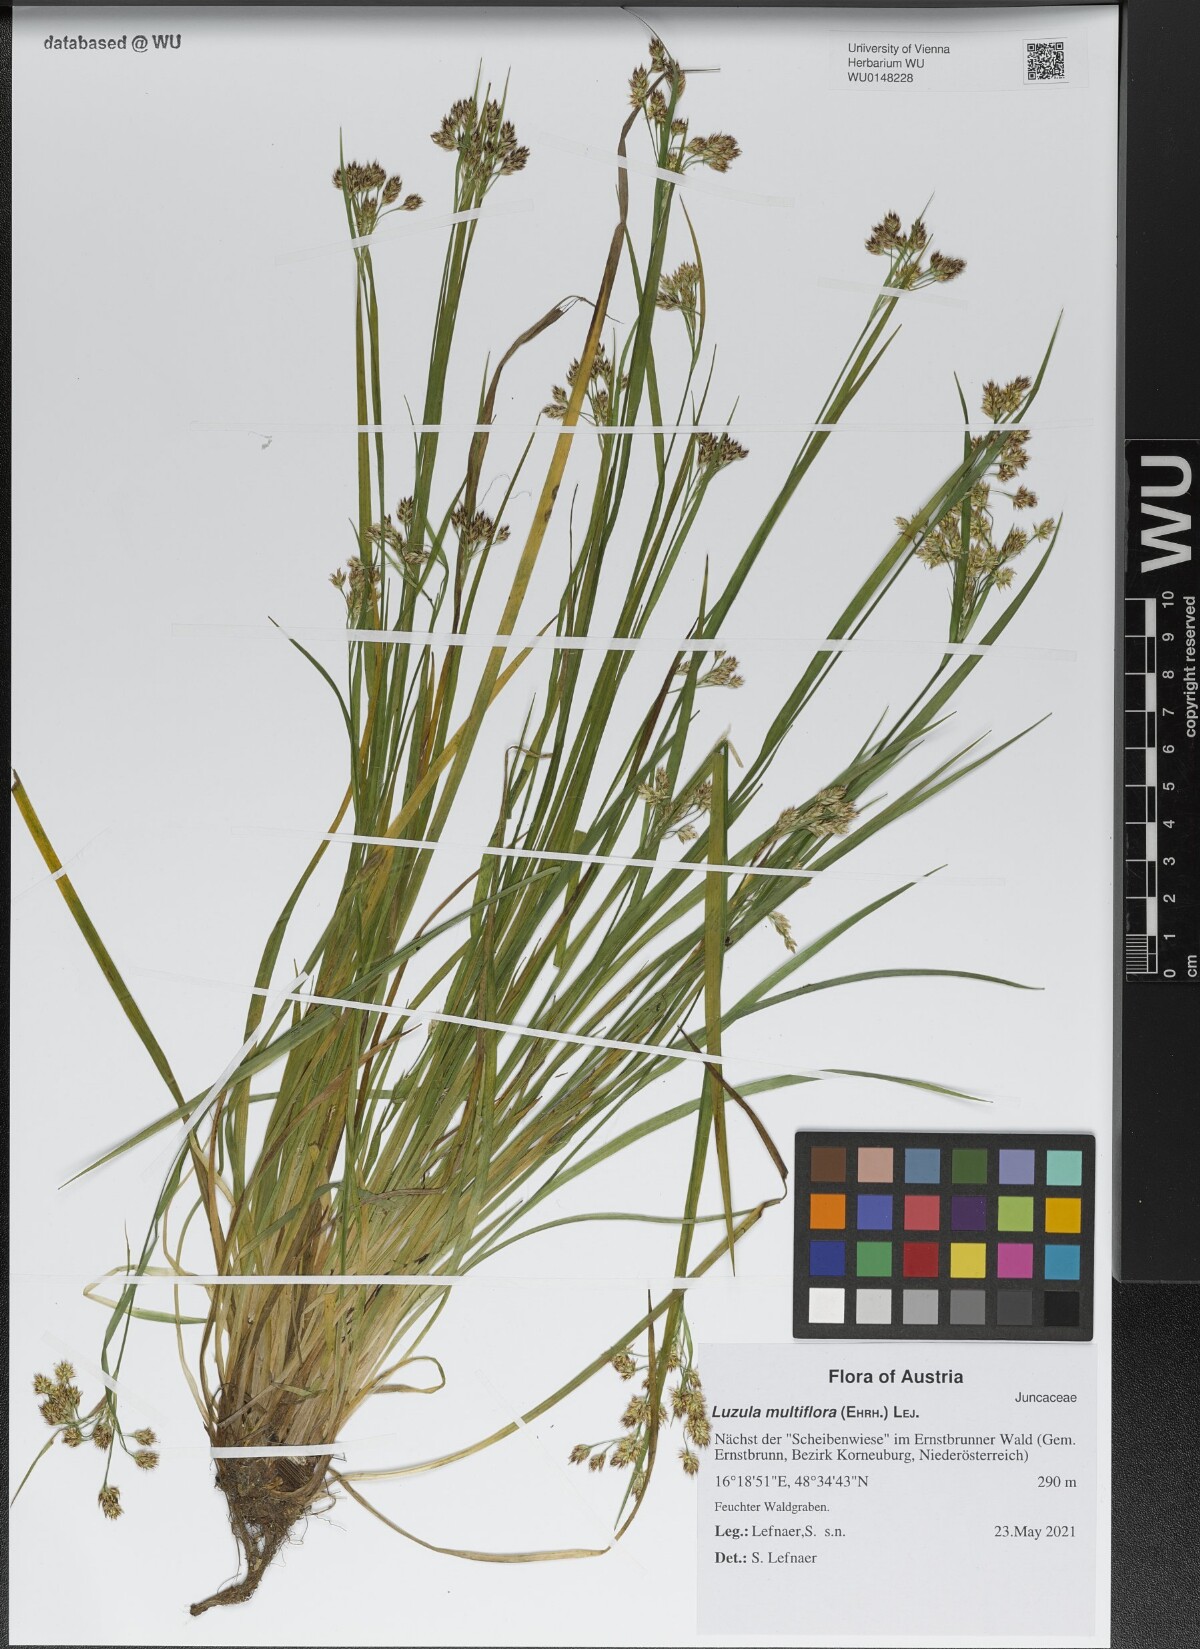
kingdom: Plantae
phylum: Tracheophyta
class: Liliopsida
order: Poales
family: Juncaceae
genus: Luzula
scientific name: Luzula multiflora
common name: Heath wood-rush
